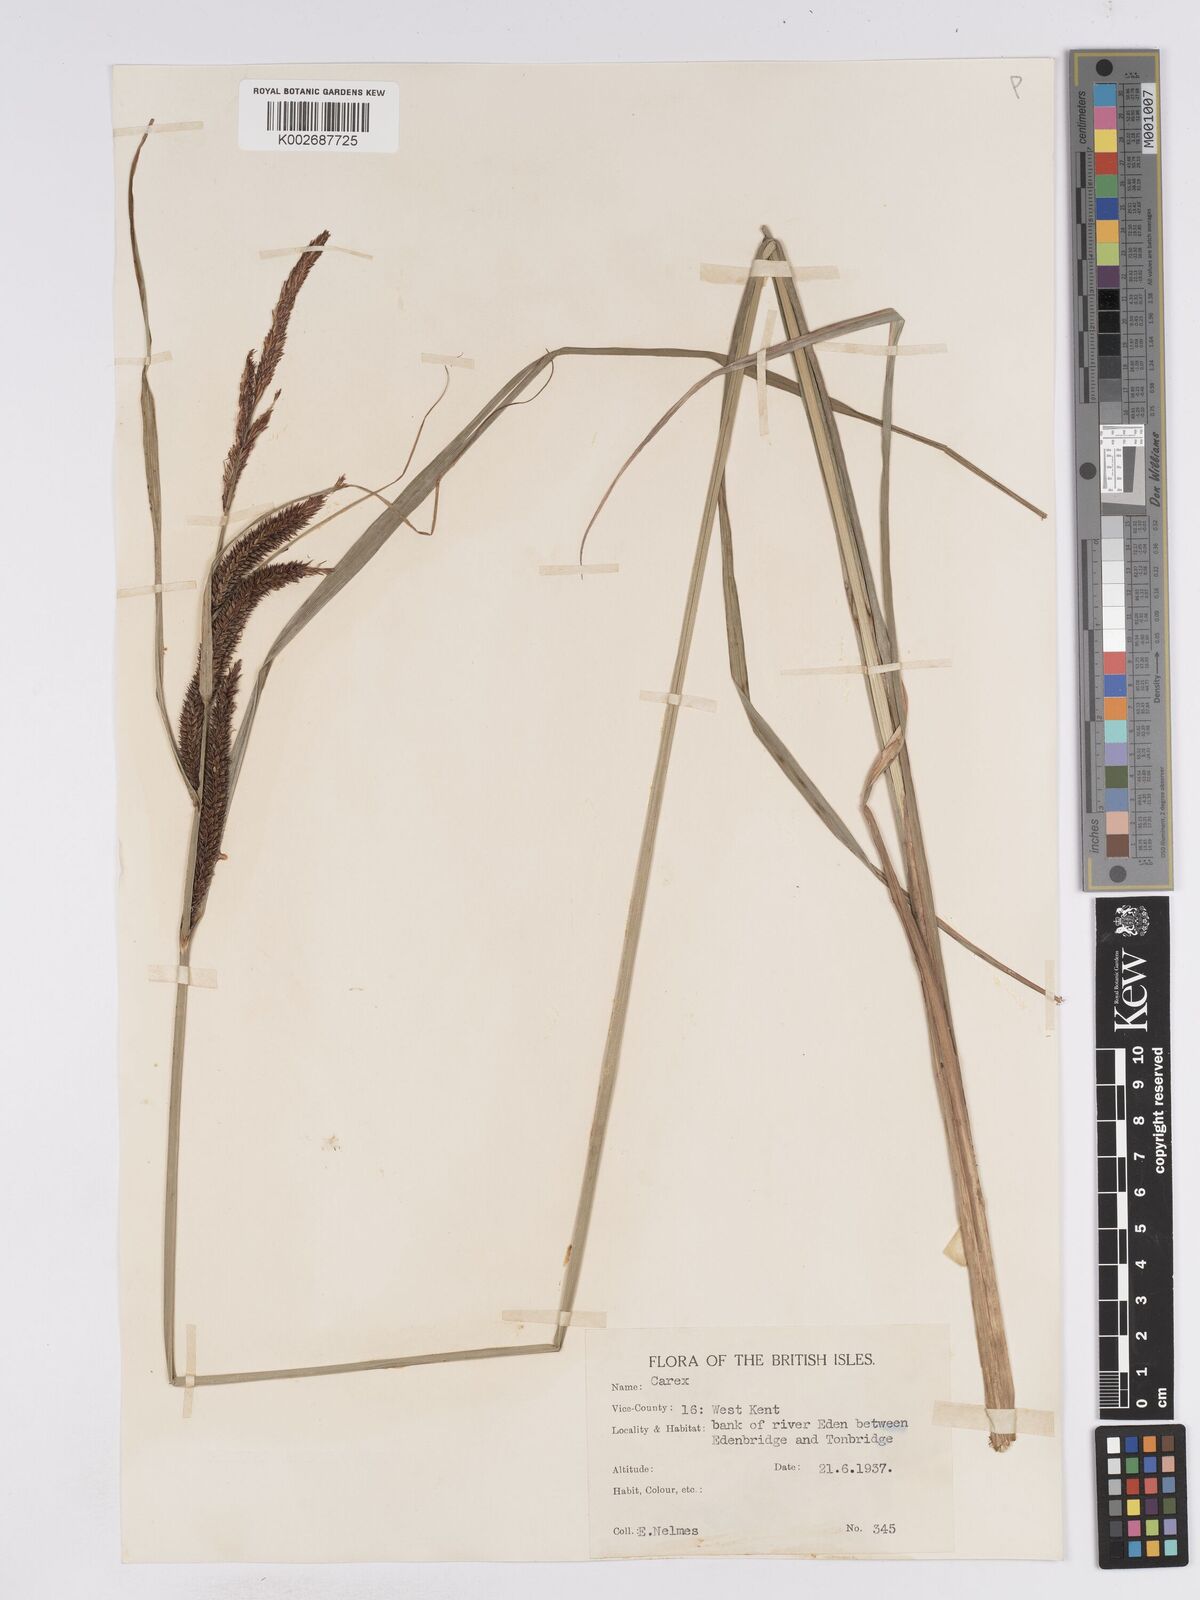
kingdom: Plantae
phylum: Tracheophyta
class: Liliopsida
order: Poales
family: Cyperaceae
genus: Carex
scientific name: Carex acuta
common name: Slender tufted-sedge
